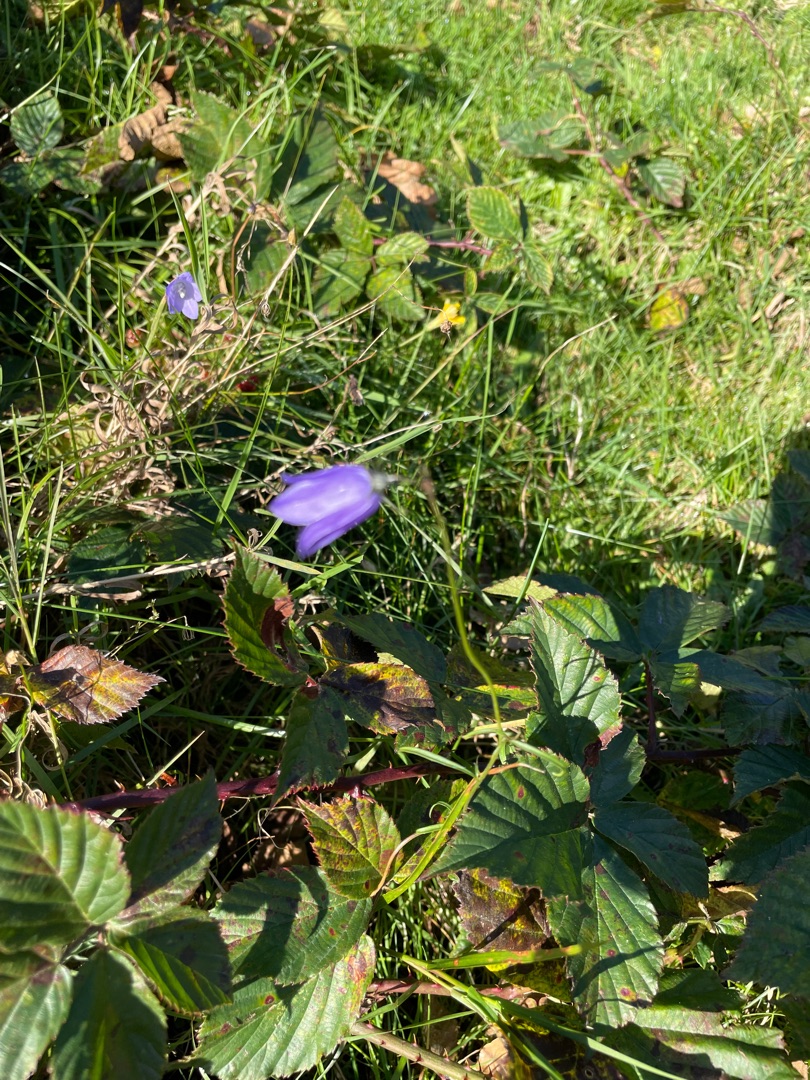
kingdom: Plantae
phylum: Tracheophyta
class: Magnoliopsida
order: Asterales
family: Campanulaceae
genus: Campanula
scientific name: Campanula rotundifolia
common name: Liden klokke
